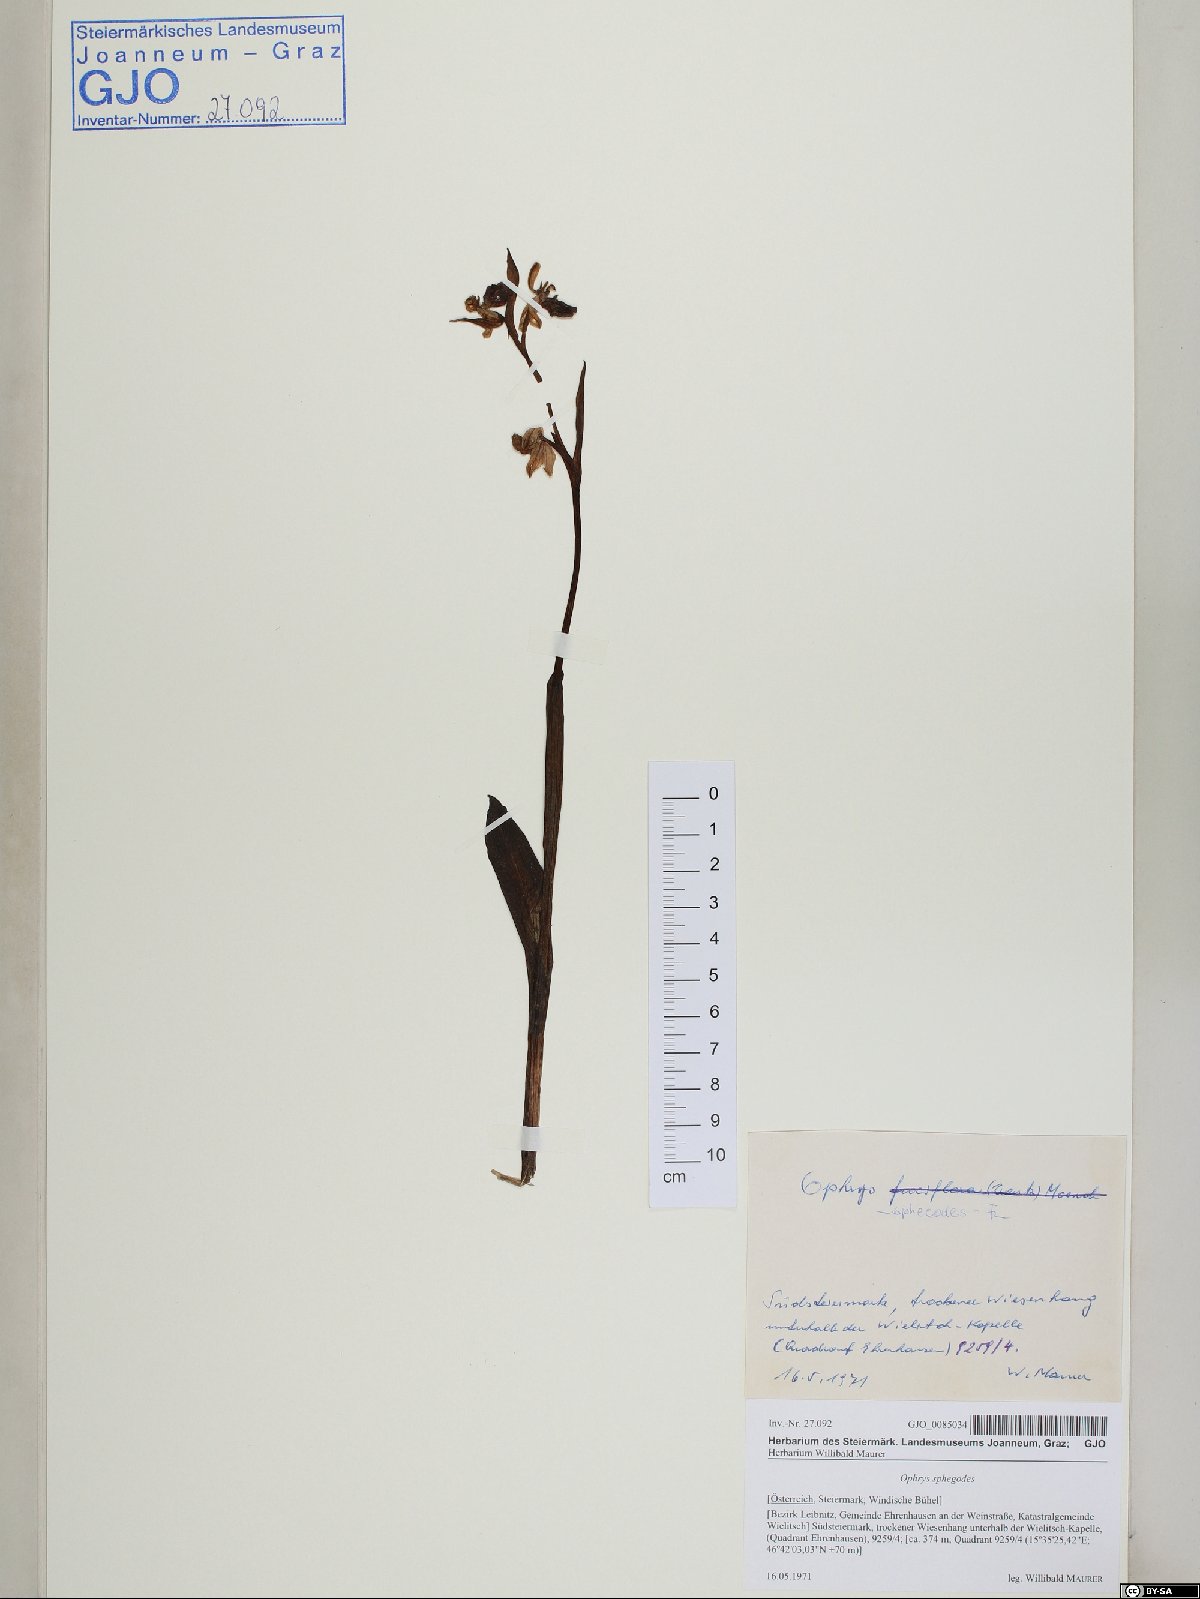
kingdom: Plantae
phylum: Tracheophyta
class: Liliopsida
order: Asparagales
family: Orchidaceae
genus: Ophrys
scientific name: Ophrys sphegodes
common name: Early spider-orchid
